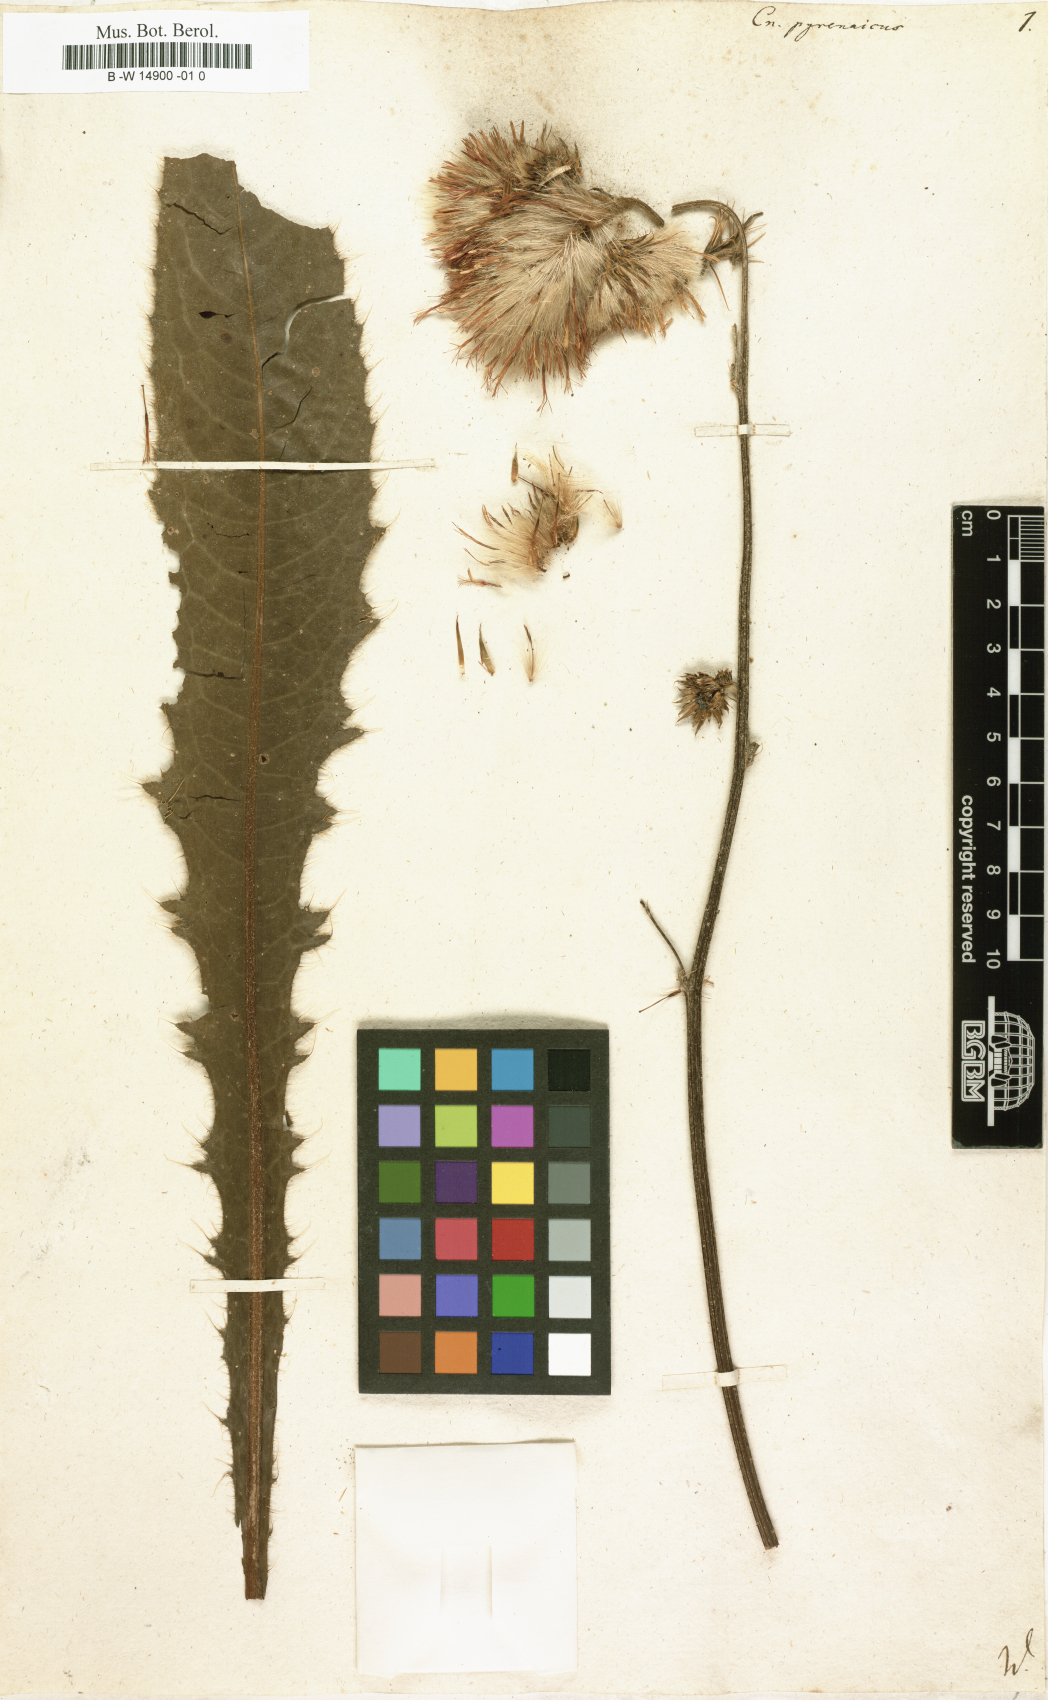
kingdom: Plantae
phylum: Tracheophyta
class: Magnoliopsida
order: Asterales
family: Asteraceae
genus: Cirsium
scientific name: Cirsium pyrenaicum
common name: Pyrenean thistle
